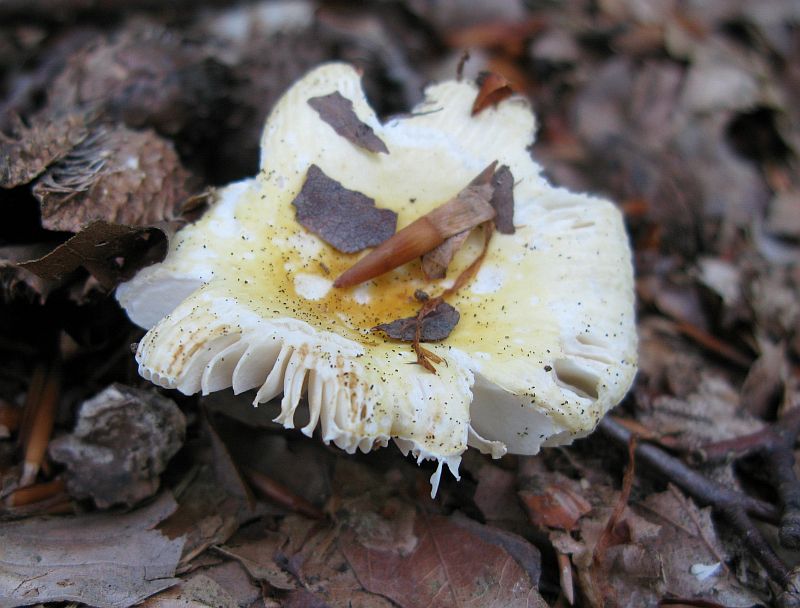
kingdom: Fungi
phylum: Basidiomycota
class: Agaricomycetes
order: Russulales
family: Russulaceae
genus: Russula
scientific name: Russula solaris
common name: sol-skørhat
